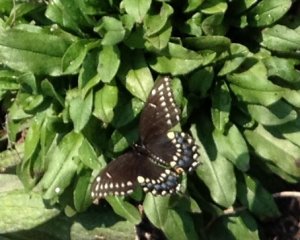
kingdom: Animalia
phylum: Arthropoda
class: Insecta
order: Lepidoptera
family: Papilionidae
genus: Papilio
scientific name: Papilio polyxenes
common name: Black Swallowtail
